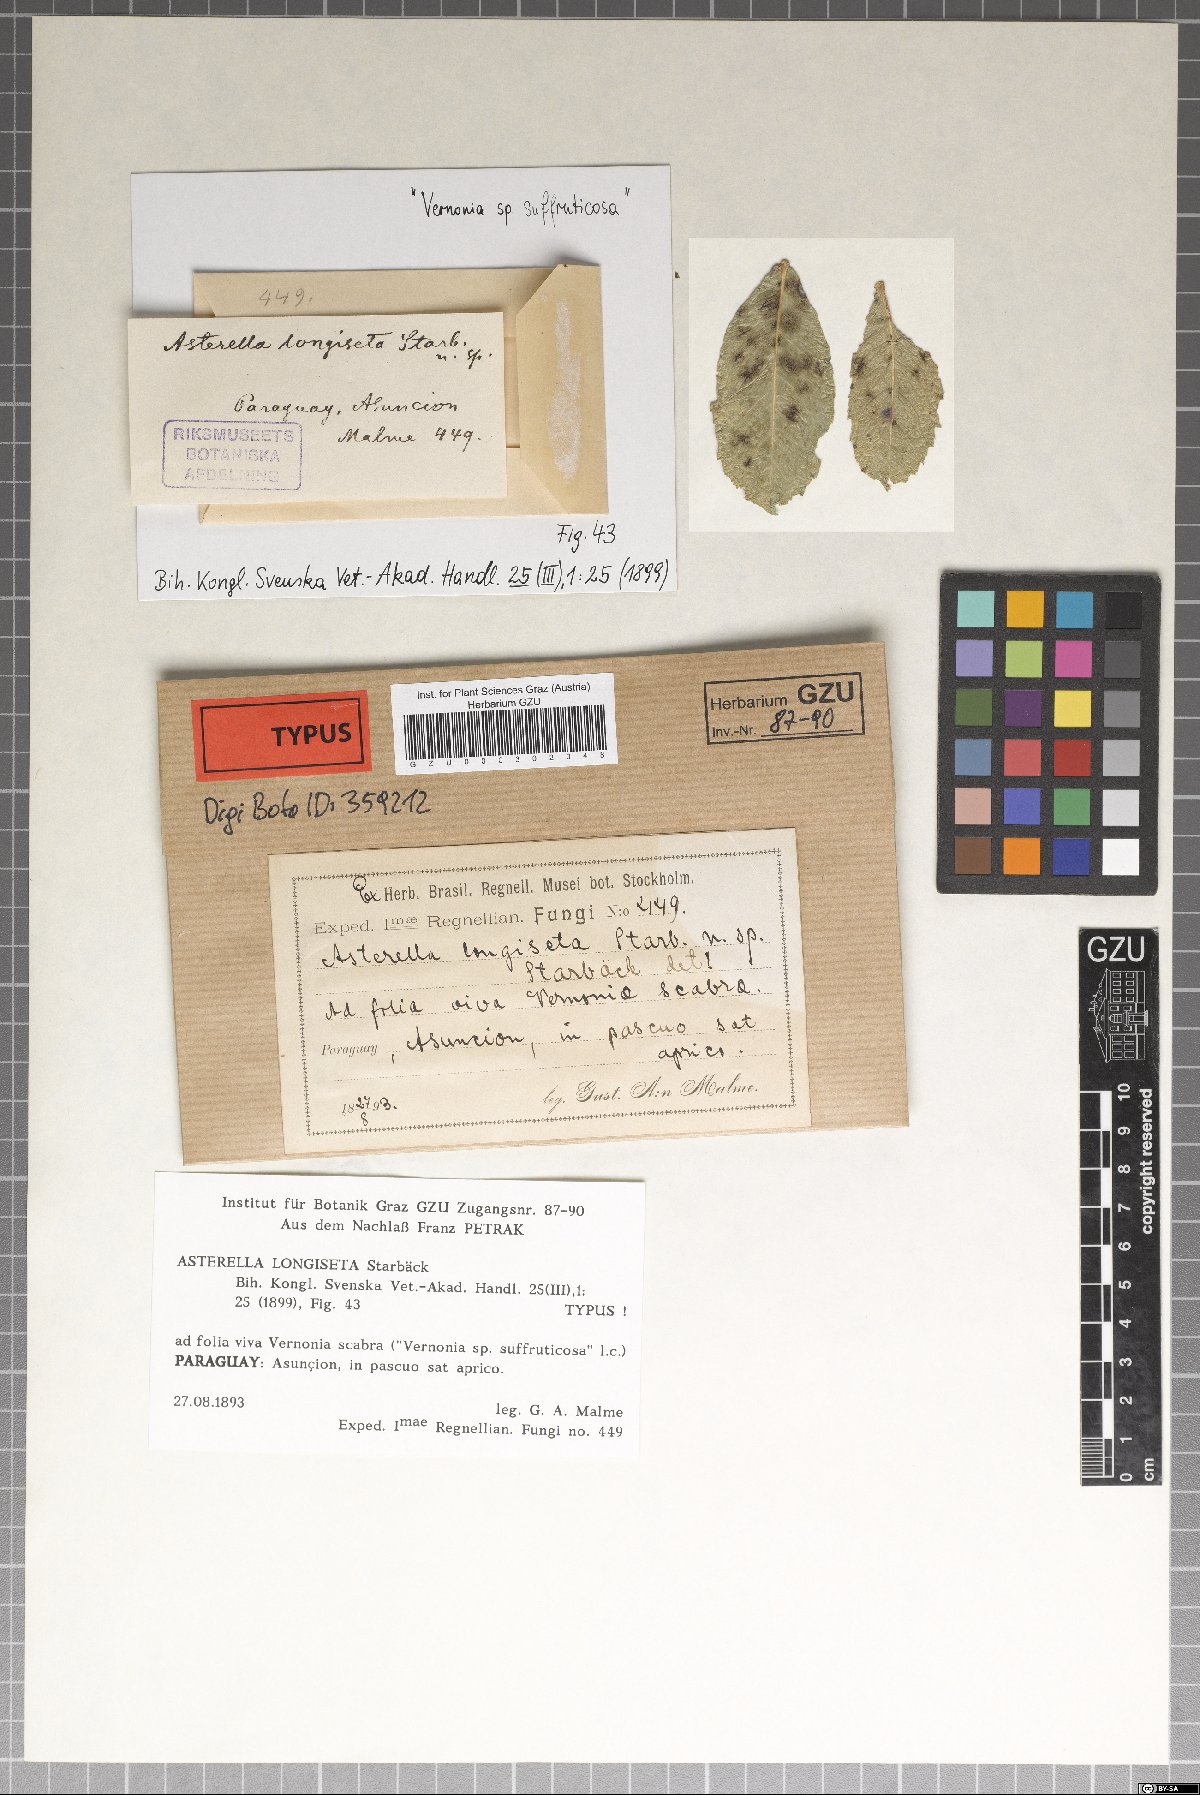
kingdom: Plantae
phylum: Marchantiophyta
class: Marchantiopsida
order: Marchantiales
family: Aytoniaceae
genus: Asterella
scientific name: Asterella
